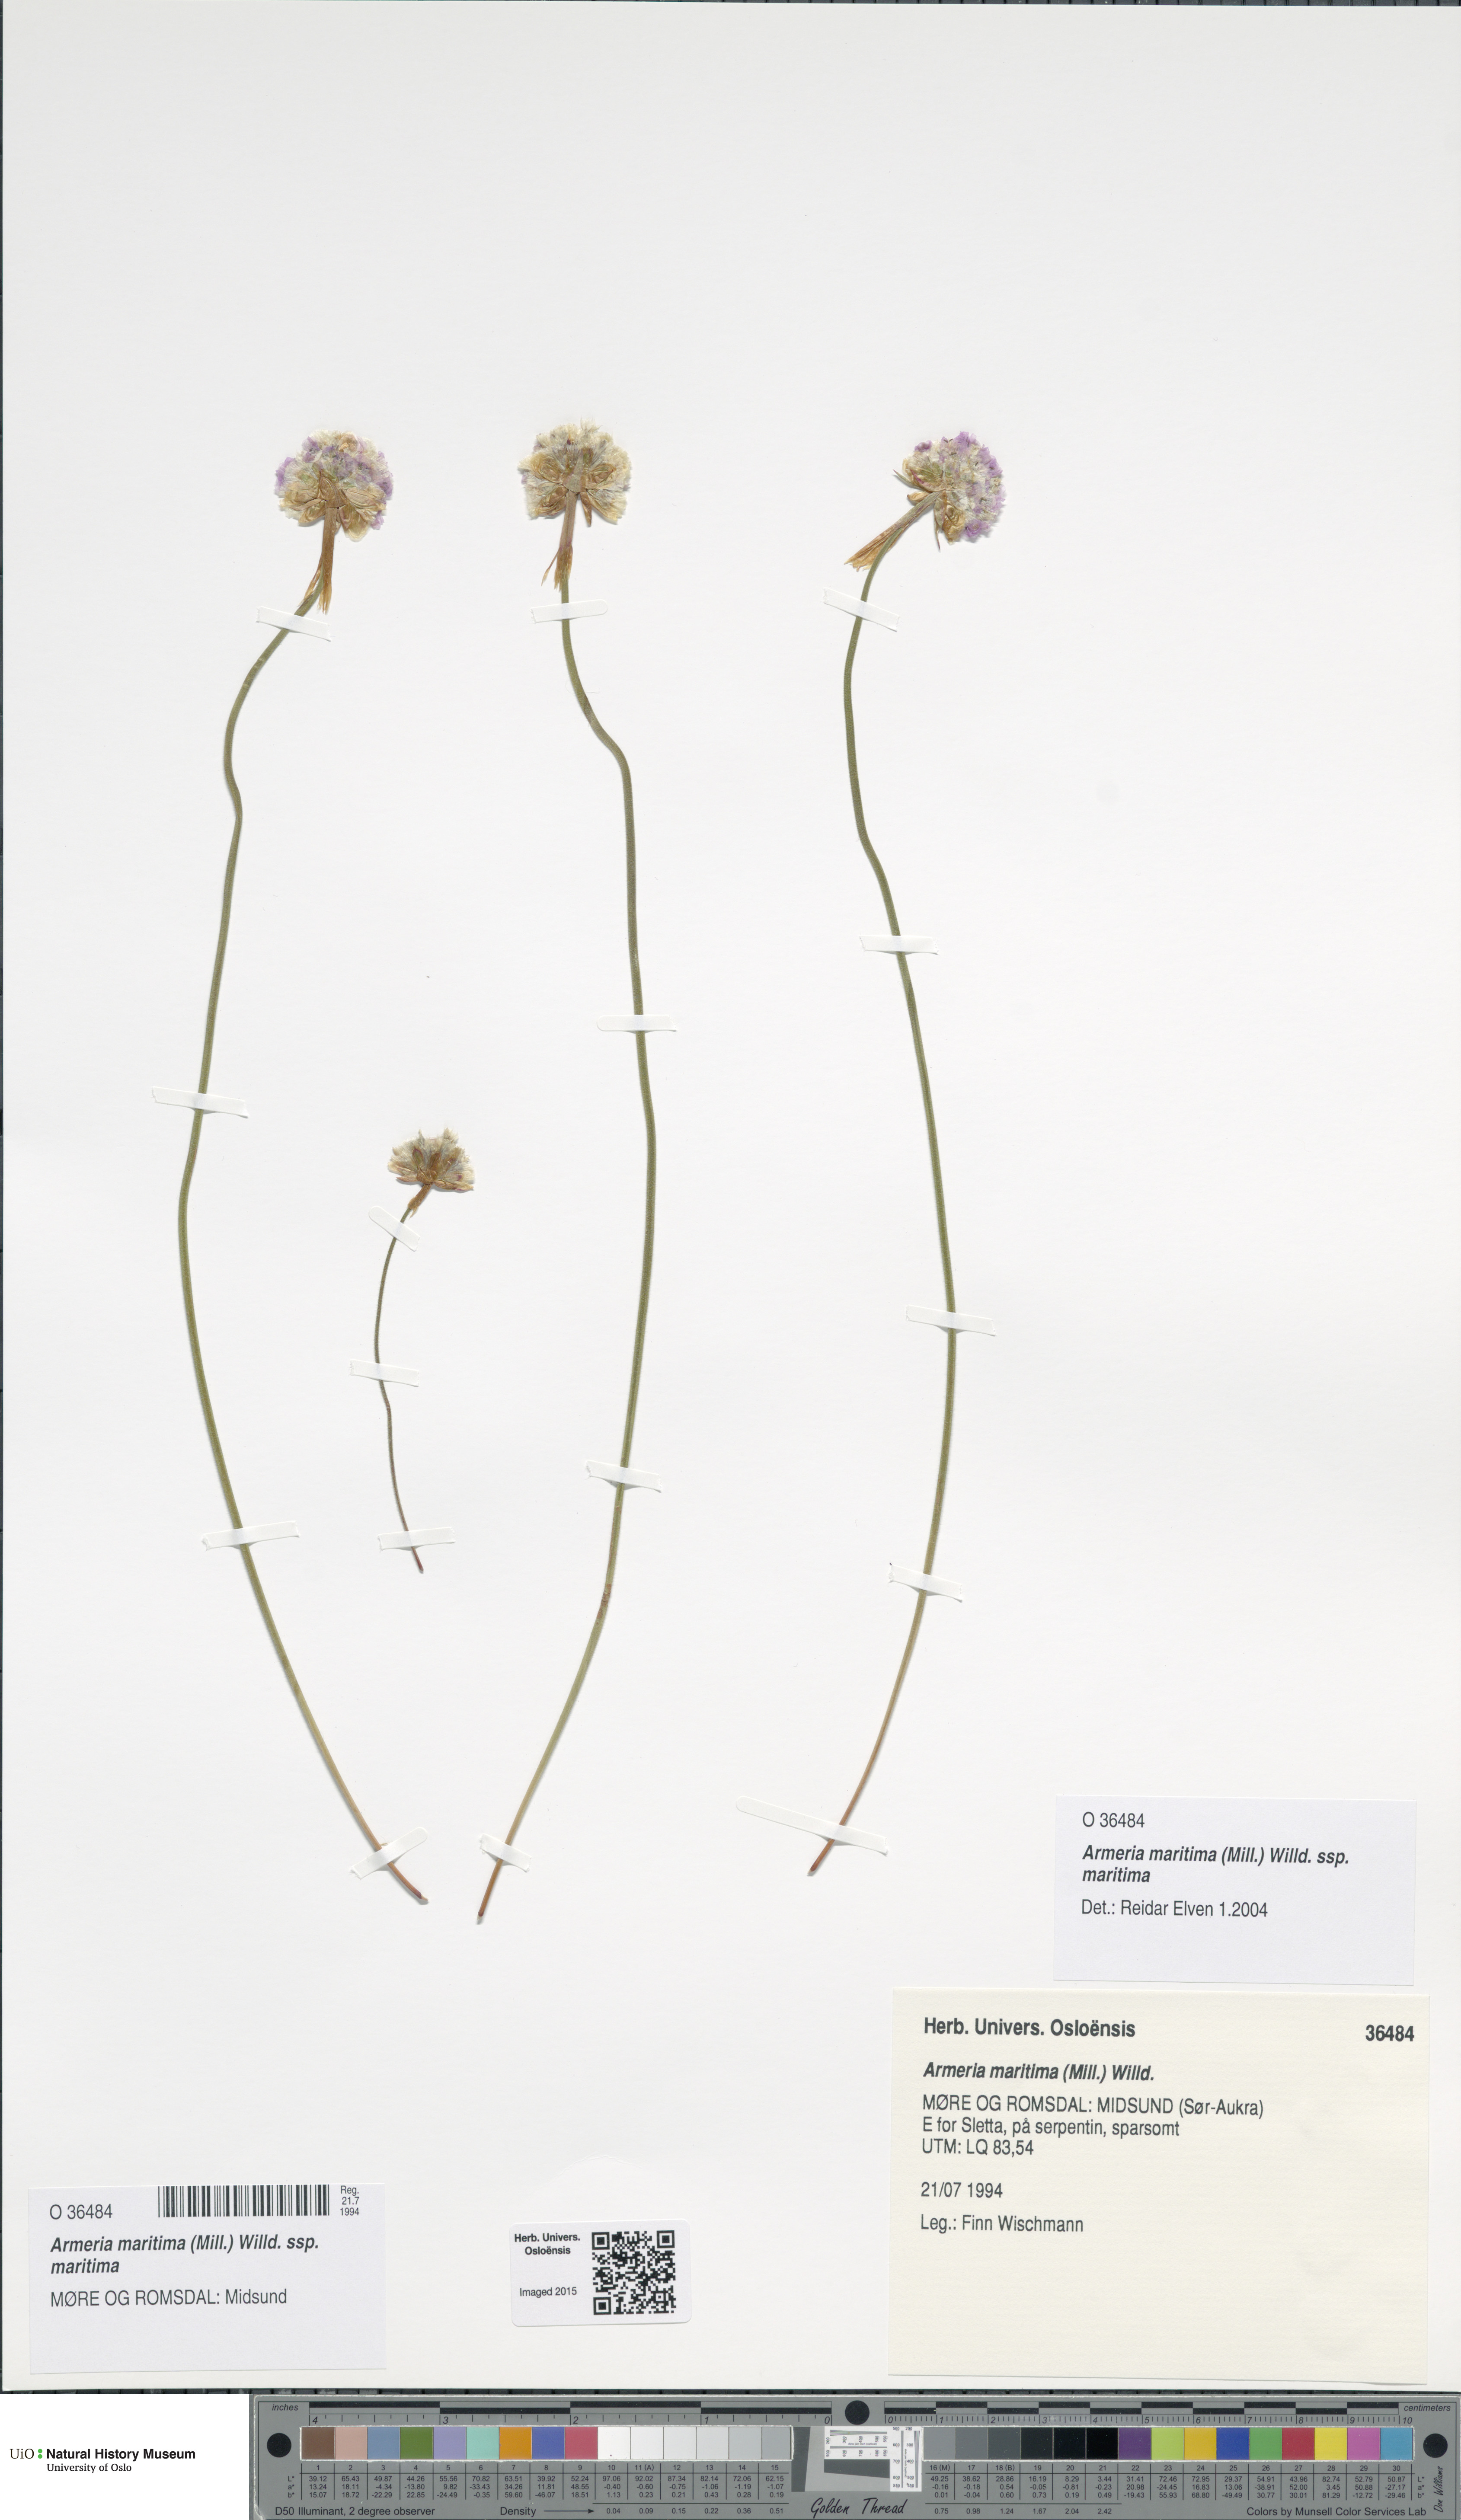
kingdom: Plantae
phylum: Tracheophyta
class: Magnoliopsida
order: Caryophyllales
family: Plumbaginaceae
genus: Armeria
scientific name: Armeria maritima
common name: Thrift
